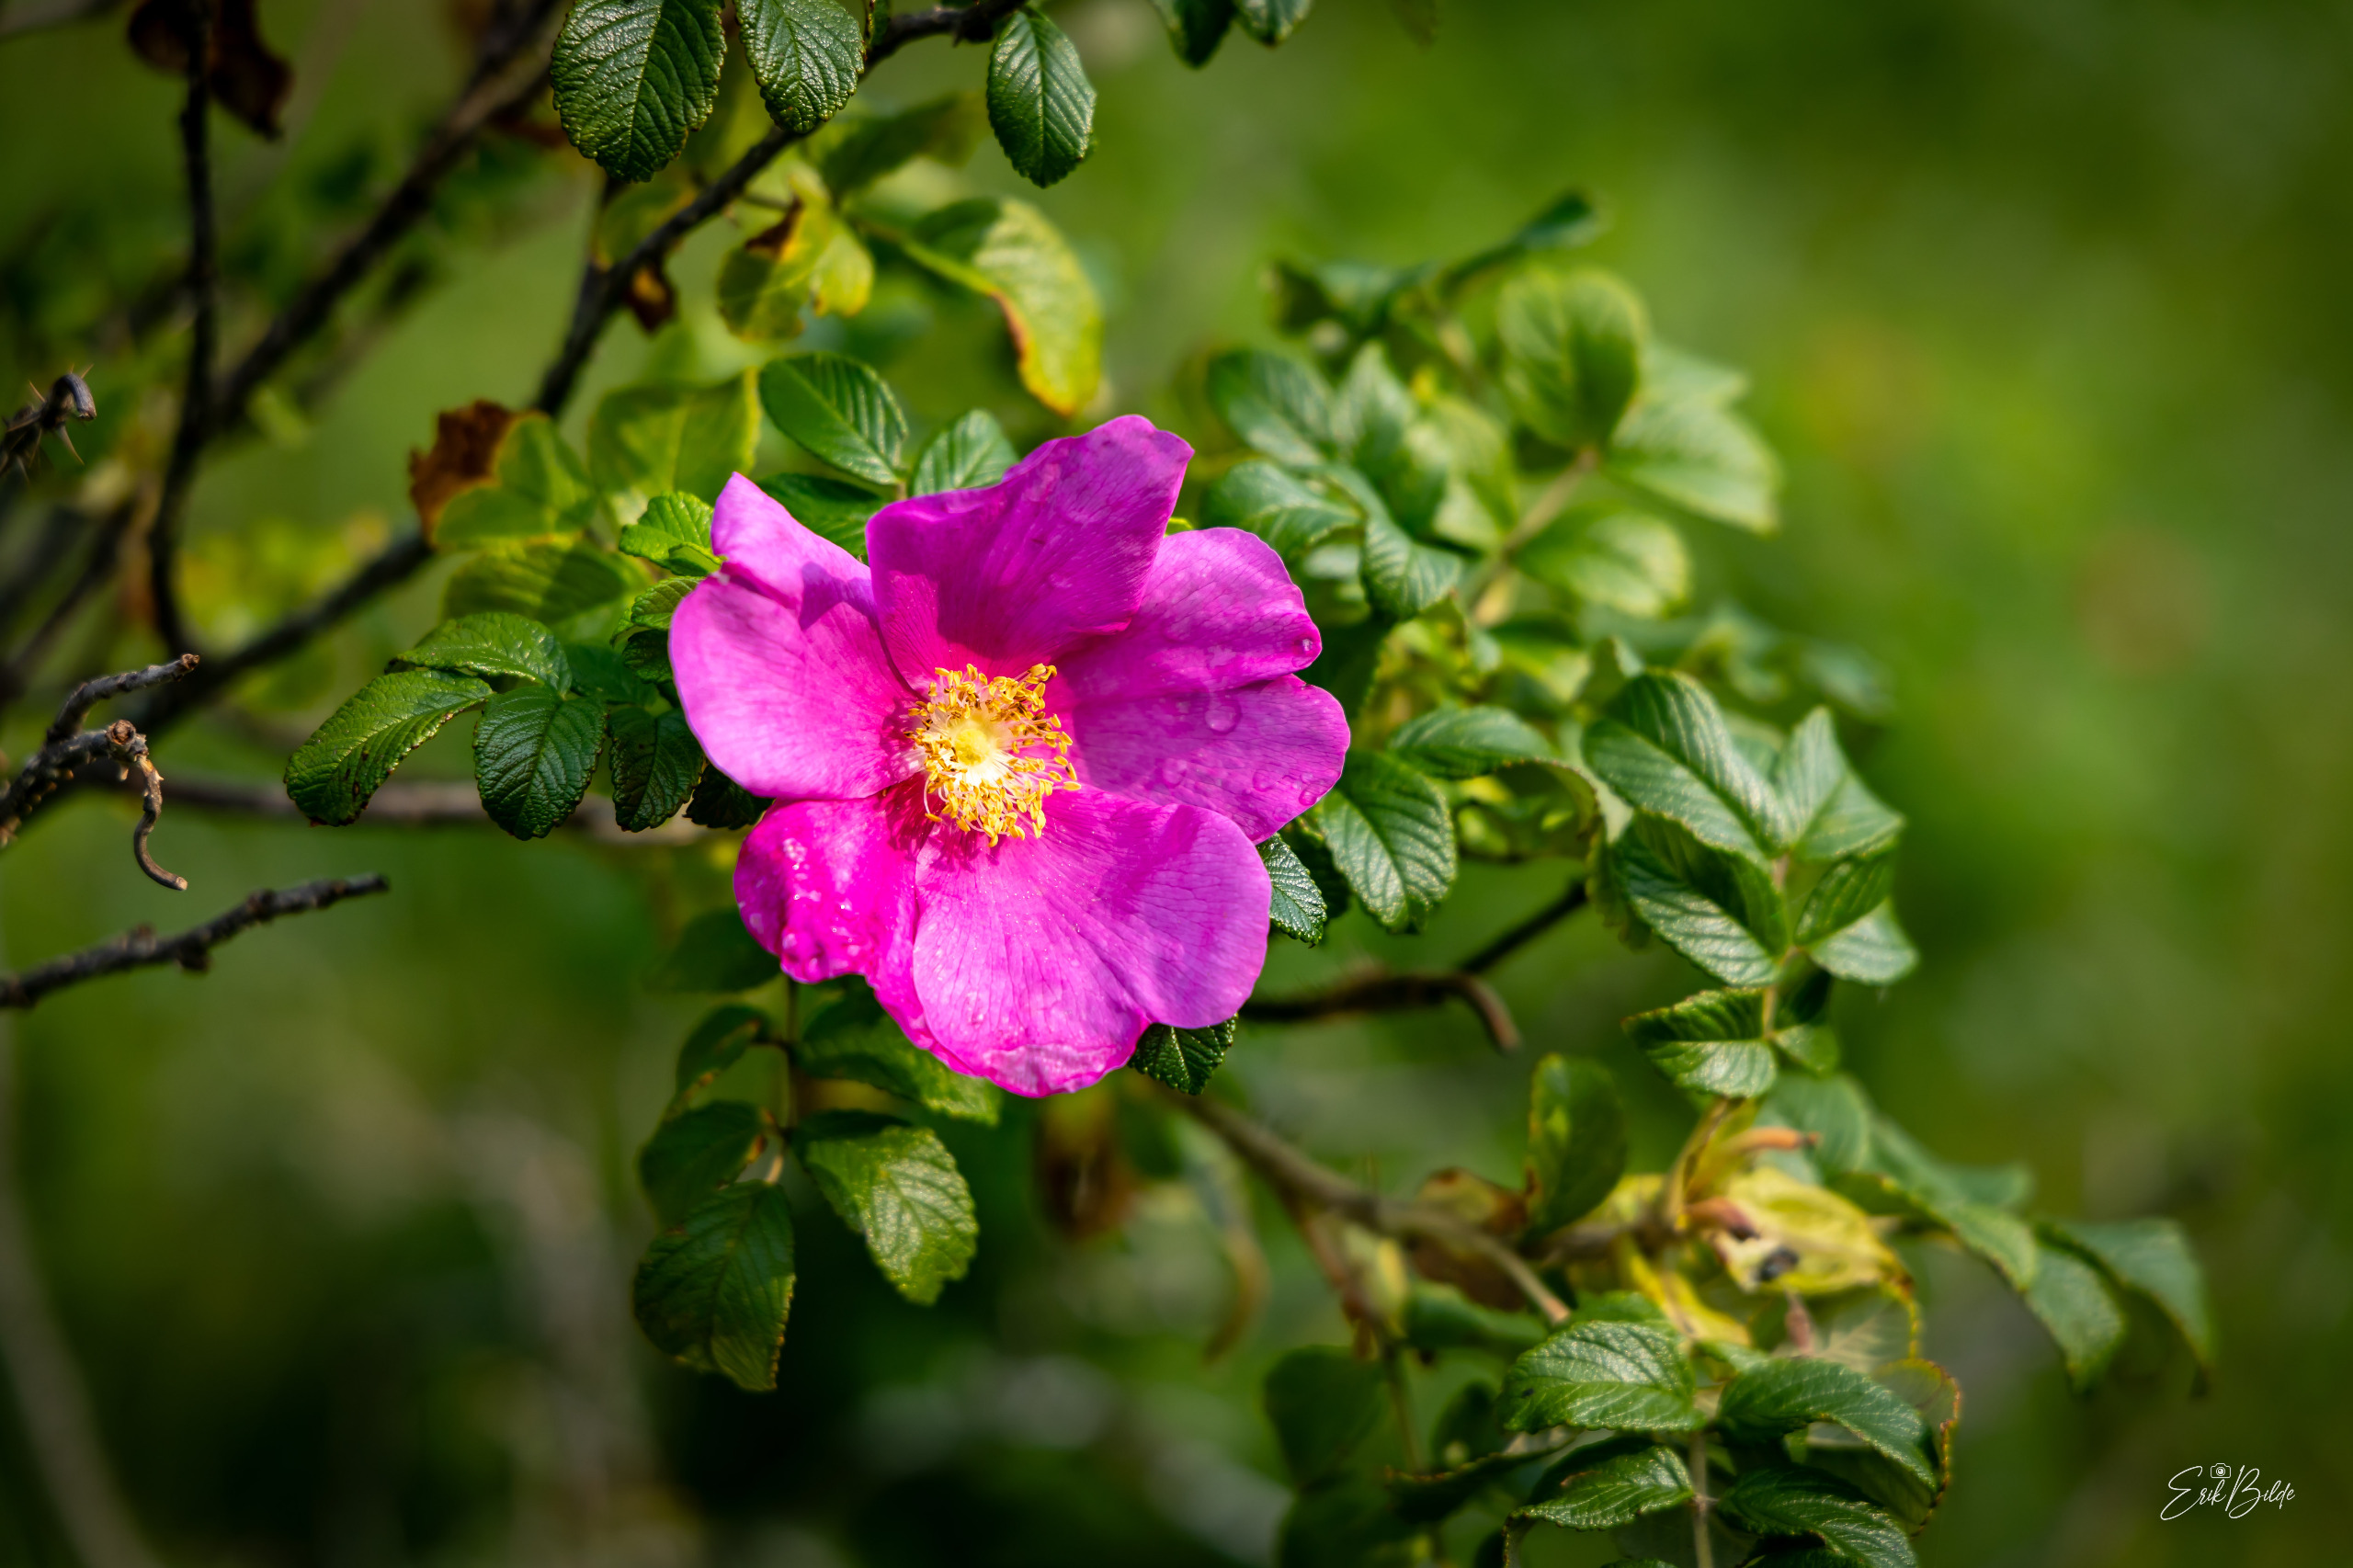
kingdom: Plantae
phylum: Tracheophyta
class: Magnoliopsida
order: Rosales
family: Rosaceae
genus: Rosa
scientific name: Rosa rugosa
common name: Rynket rose
